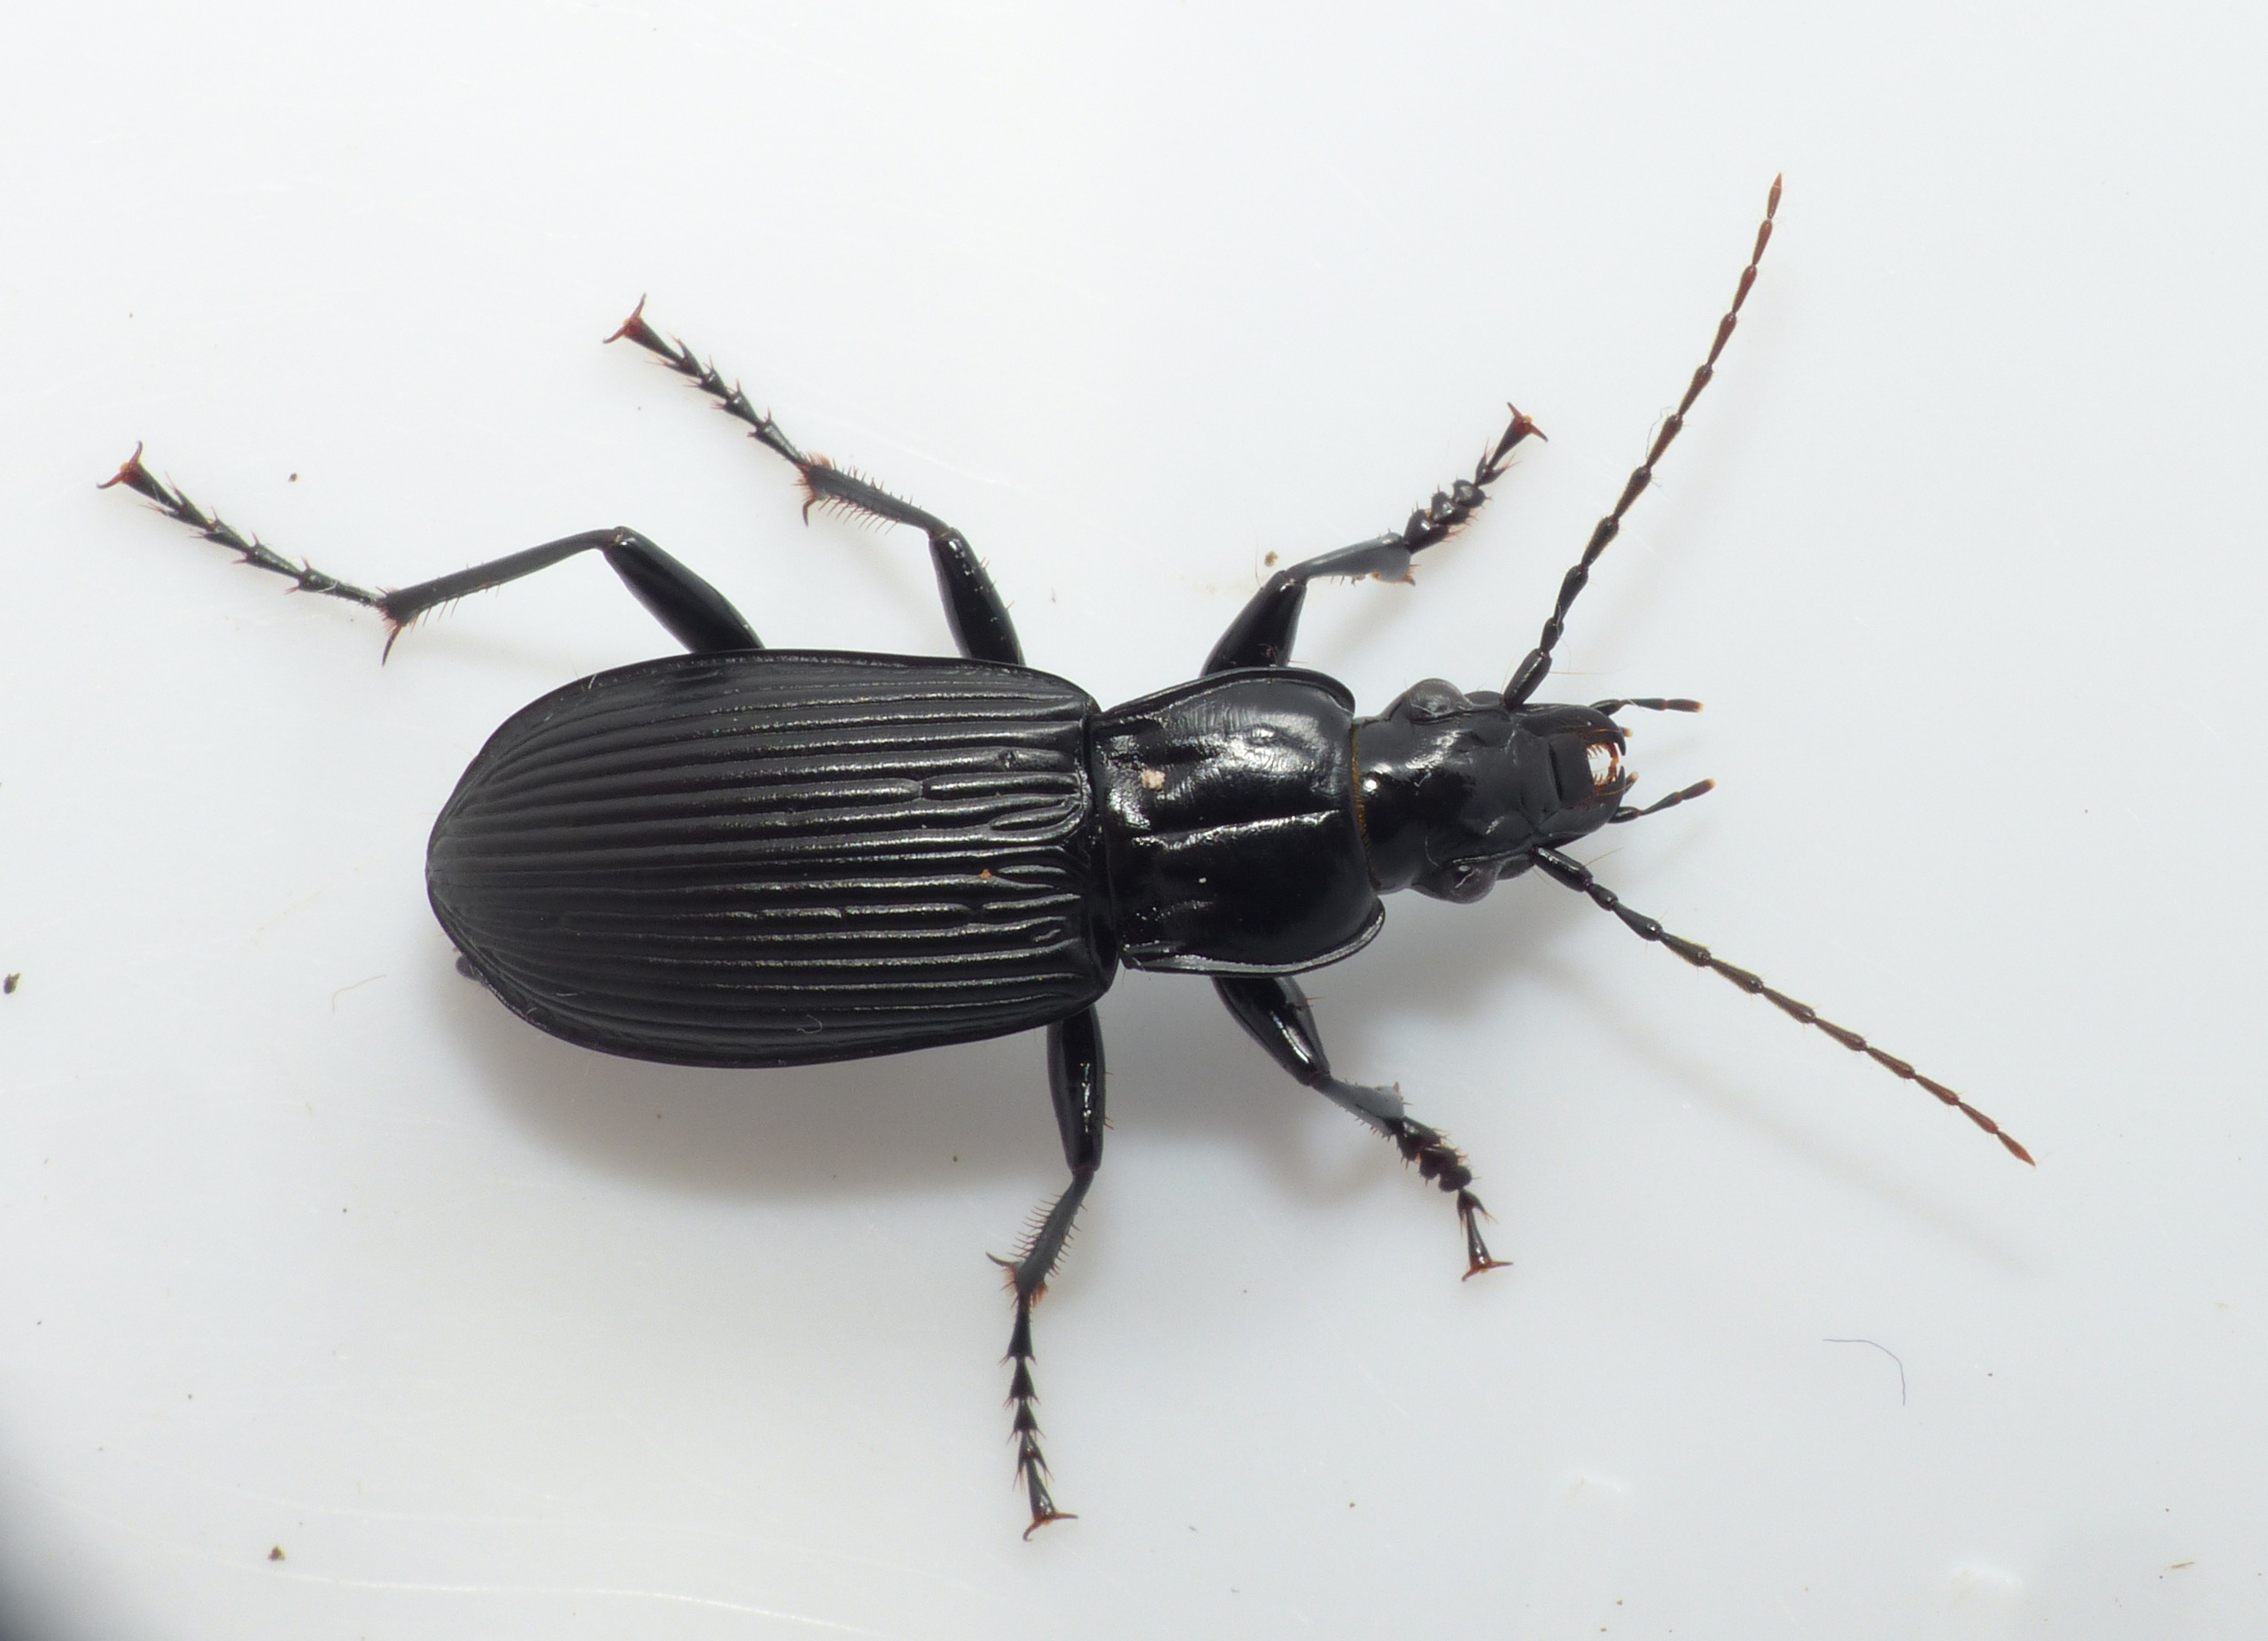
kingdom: Animalia
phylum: Arthropoda
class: Insecta
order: Coleoptera
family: Carabidae
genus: Pterostichus
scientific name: Pterostichus niger
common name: Skovjordløber
